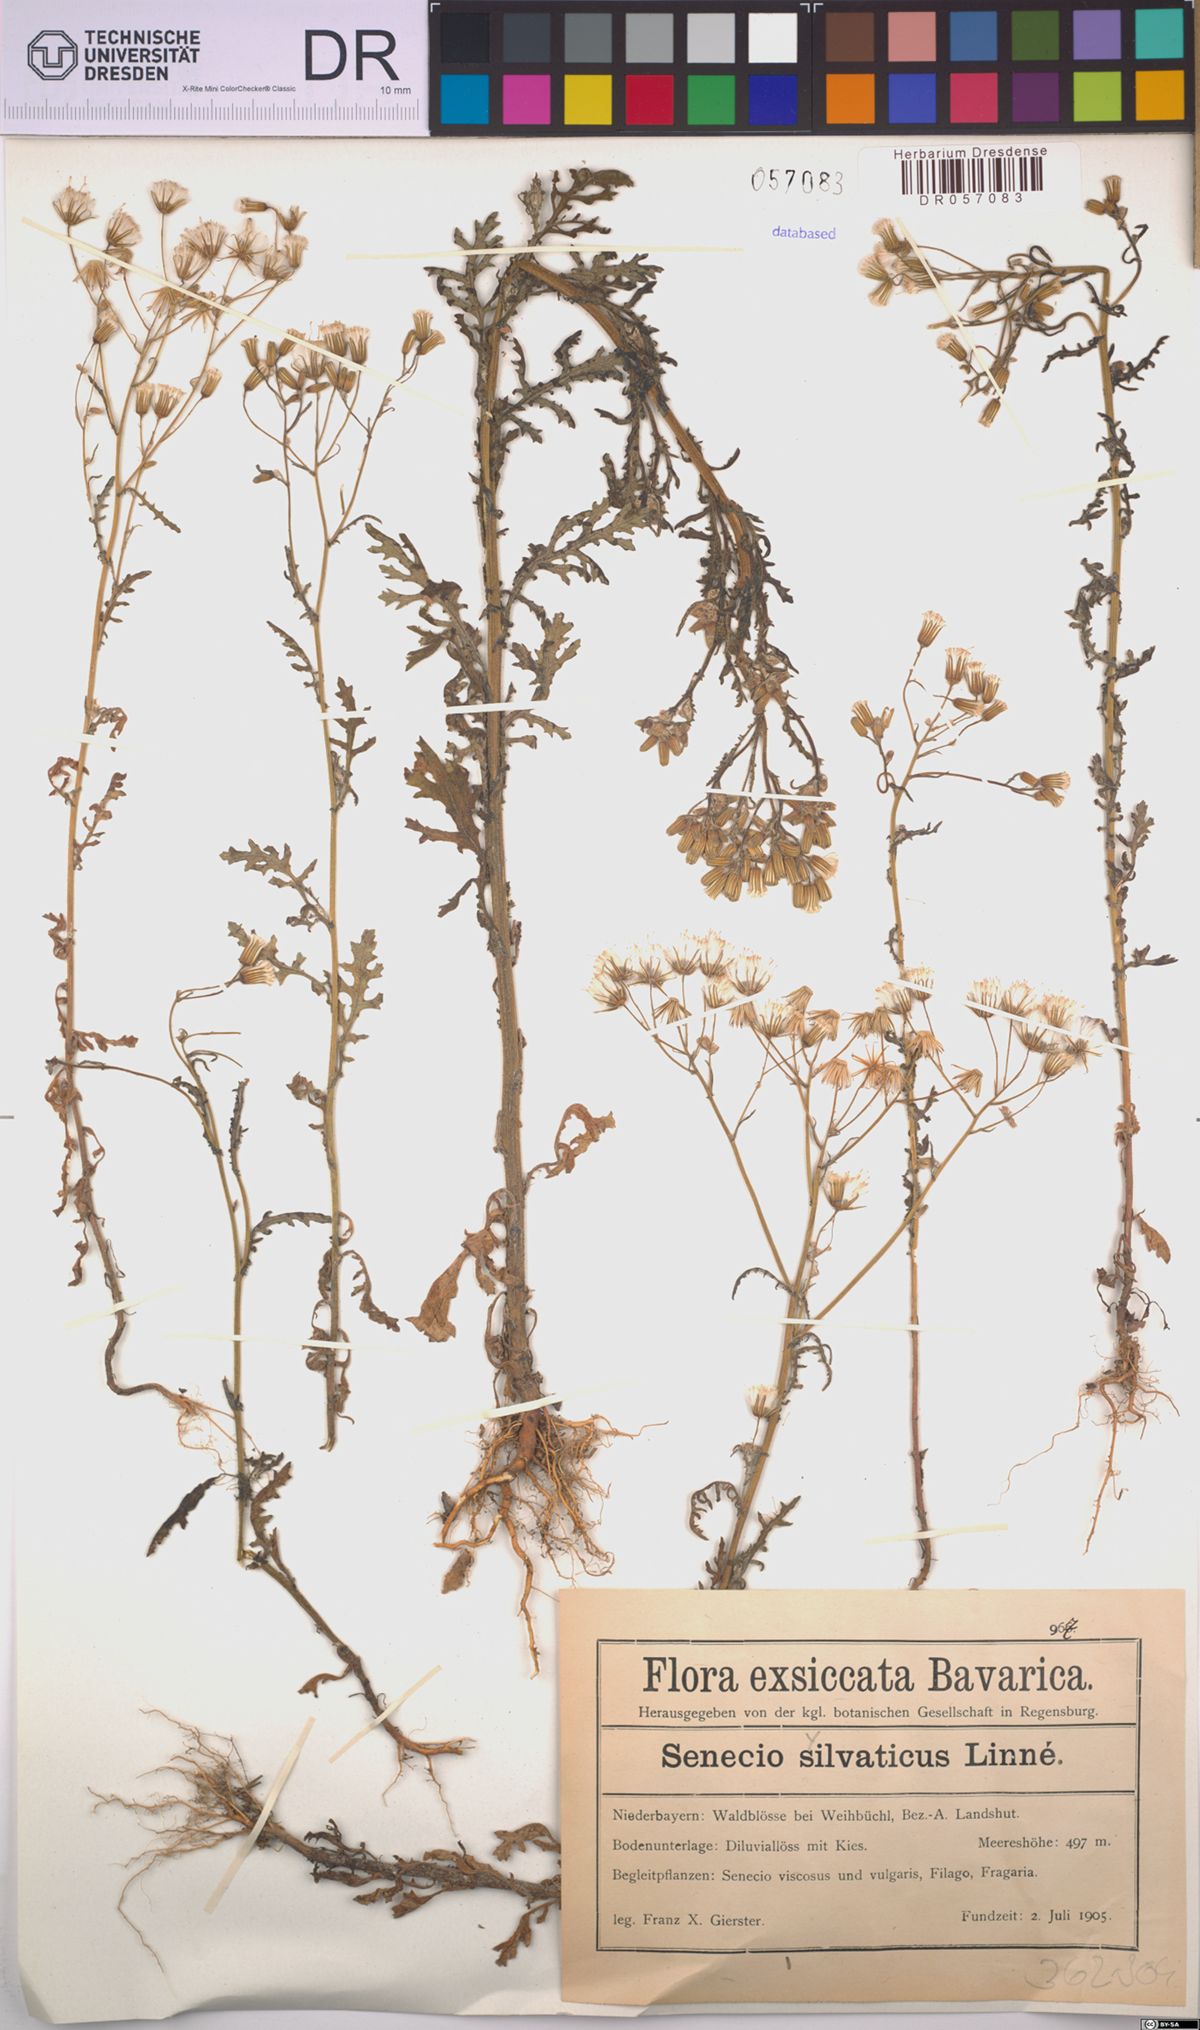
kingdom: Plantae
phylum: Tracheophyta
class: Magnoliopsida
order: Asterales
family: Asteraceae
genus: Senecio
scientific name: Senecio sylvaticus
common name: Woodland ragwort
